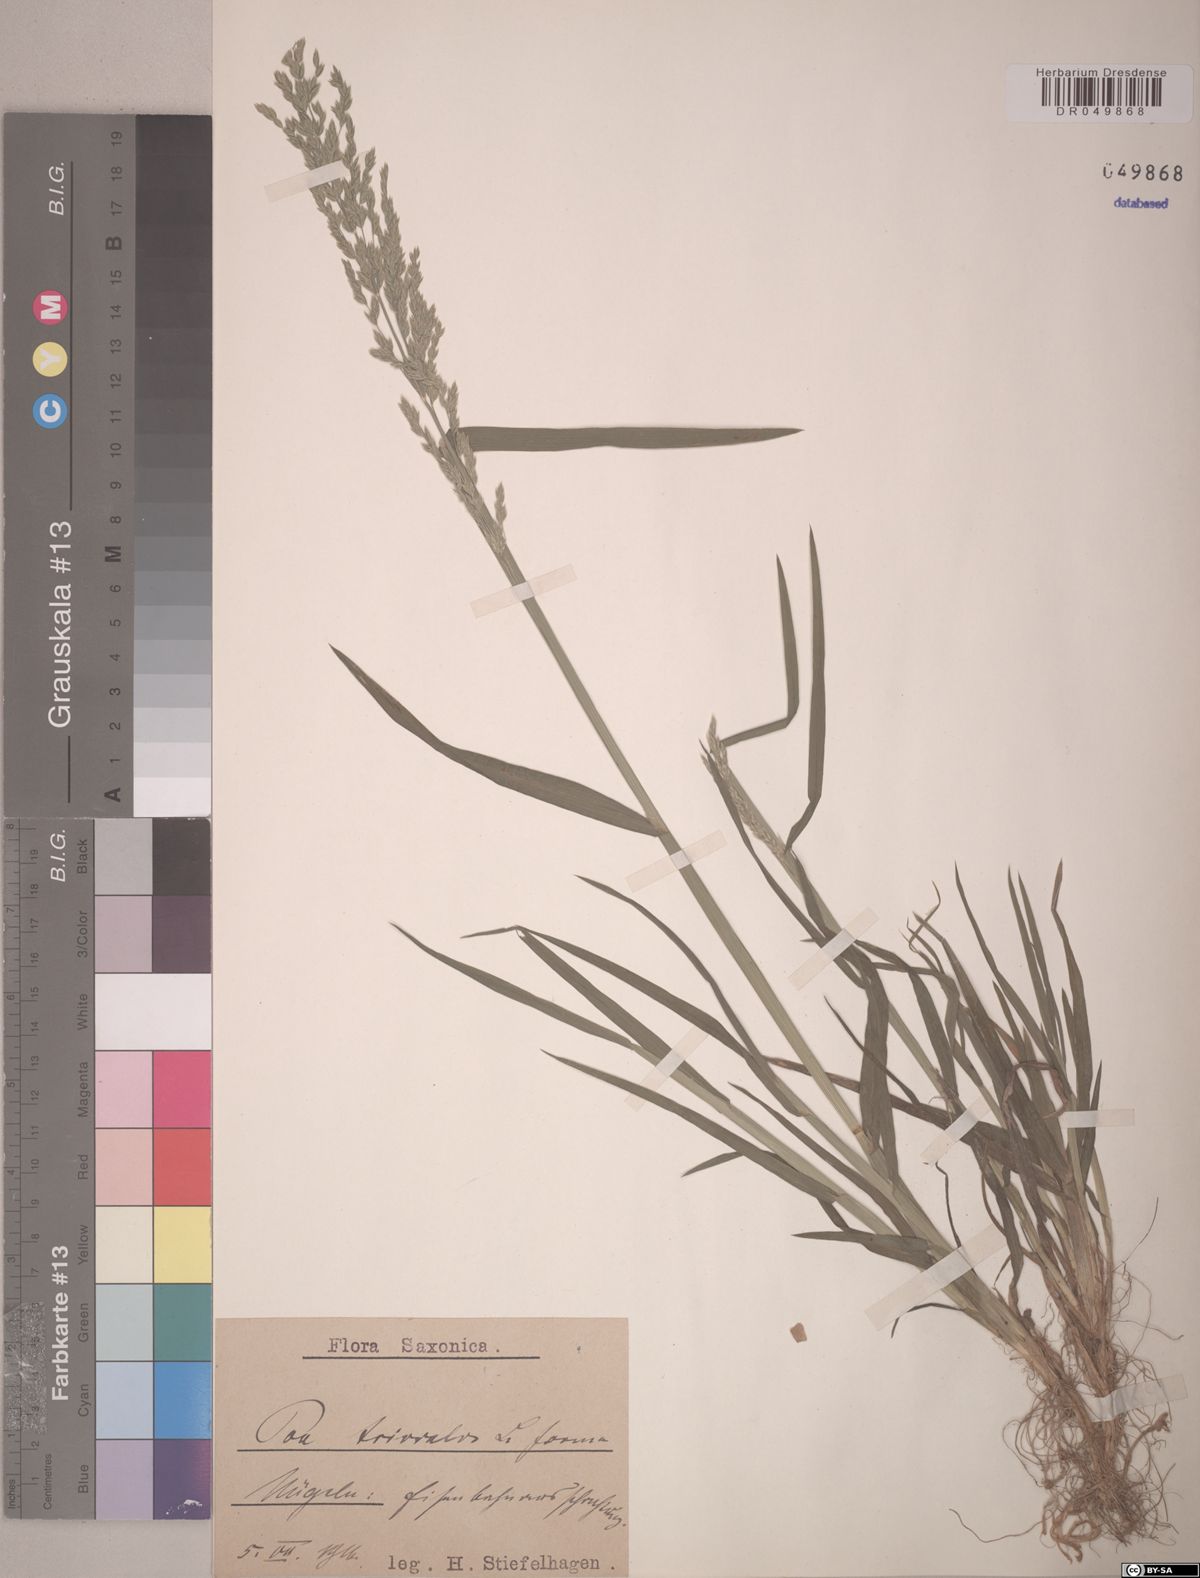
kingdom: Plantae
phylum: Tracheophyta
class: Liliopsida
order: Poales
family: Poaceae
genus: Poa
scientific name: Poa trivialis
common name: Rough bluegrass
